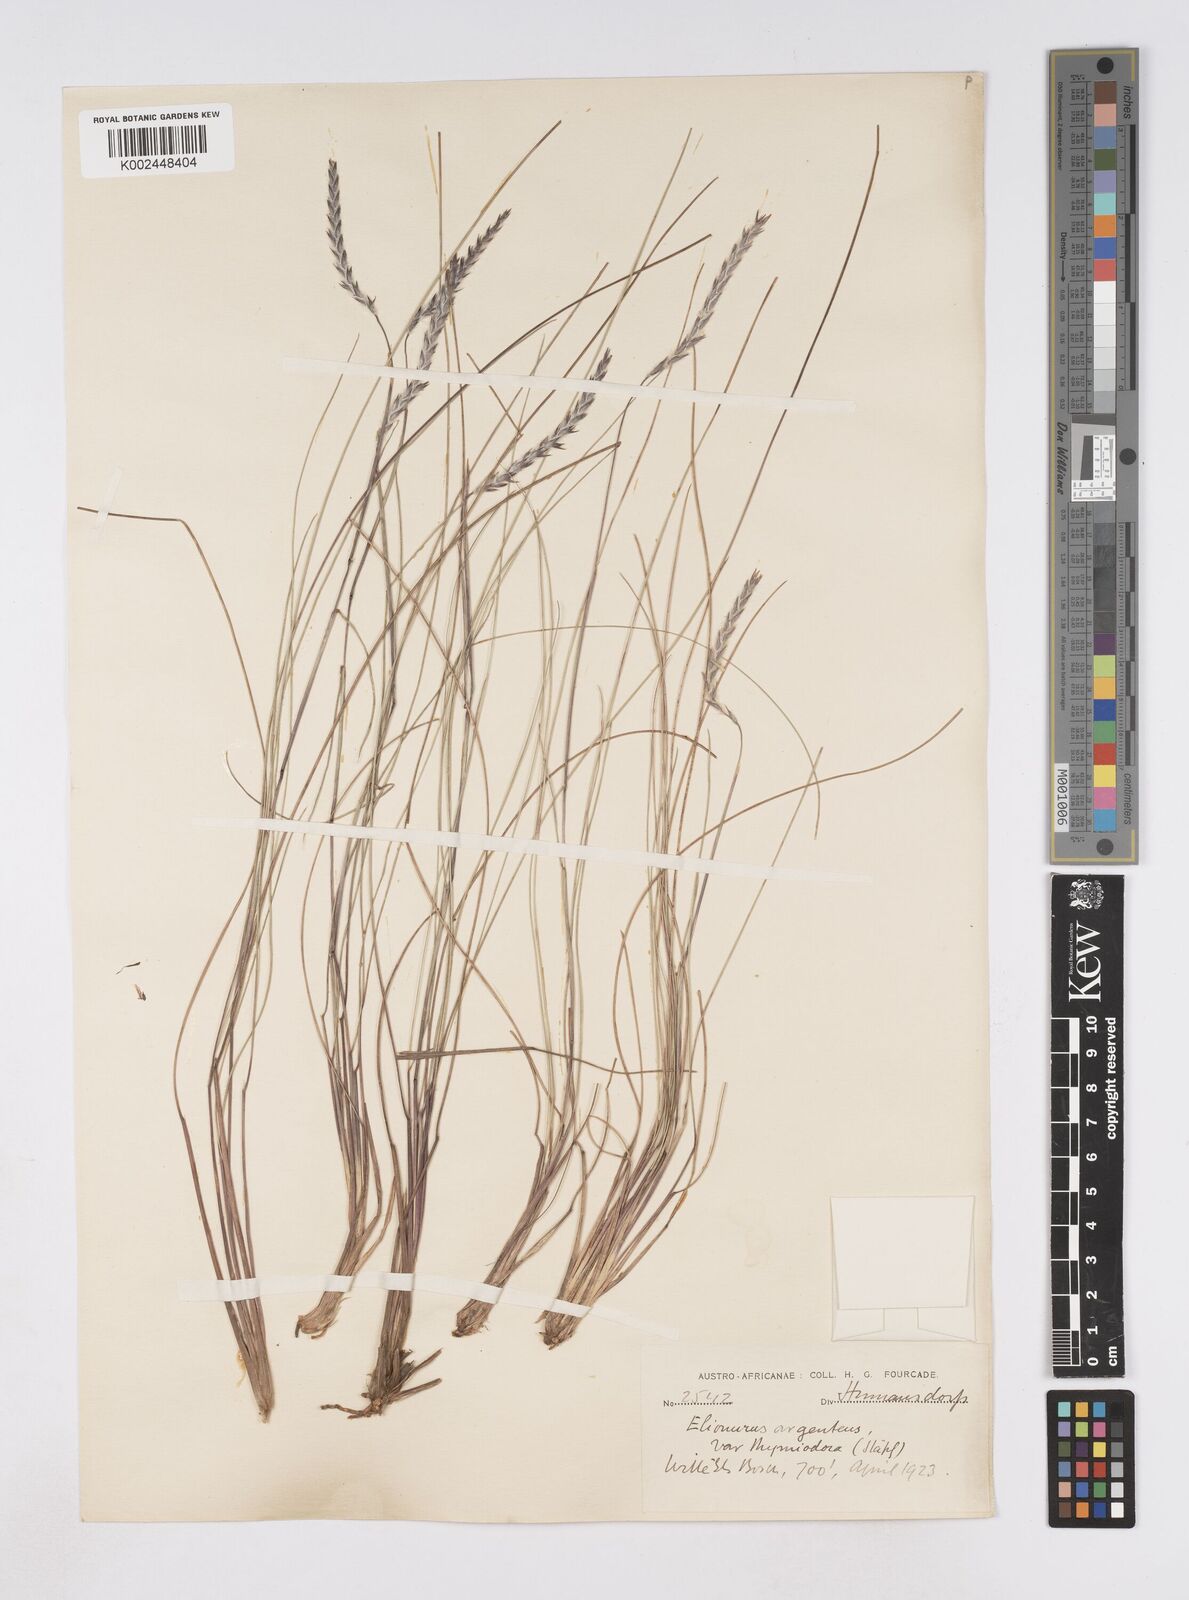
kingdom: Plantae
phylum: Tracheophyta
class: Liliopsida
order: Poales
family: Poaceae
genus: Elionurus
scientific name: Elionurus muticus
